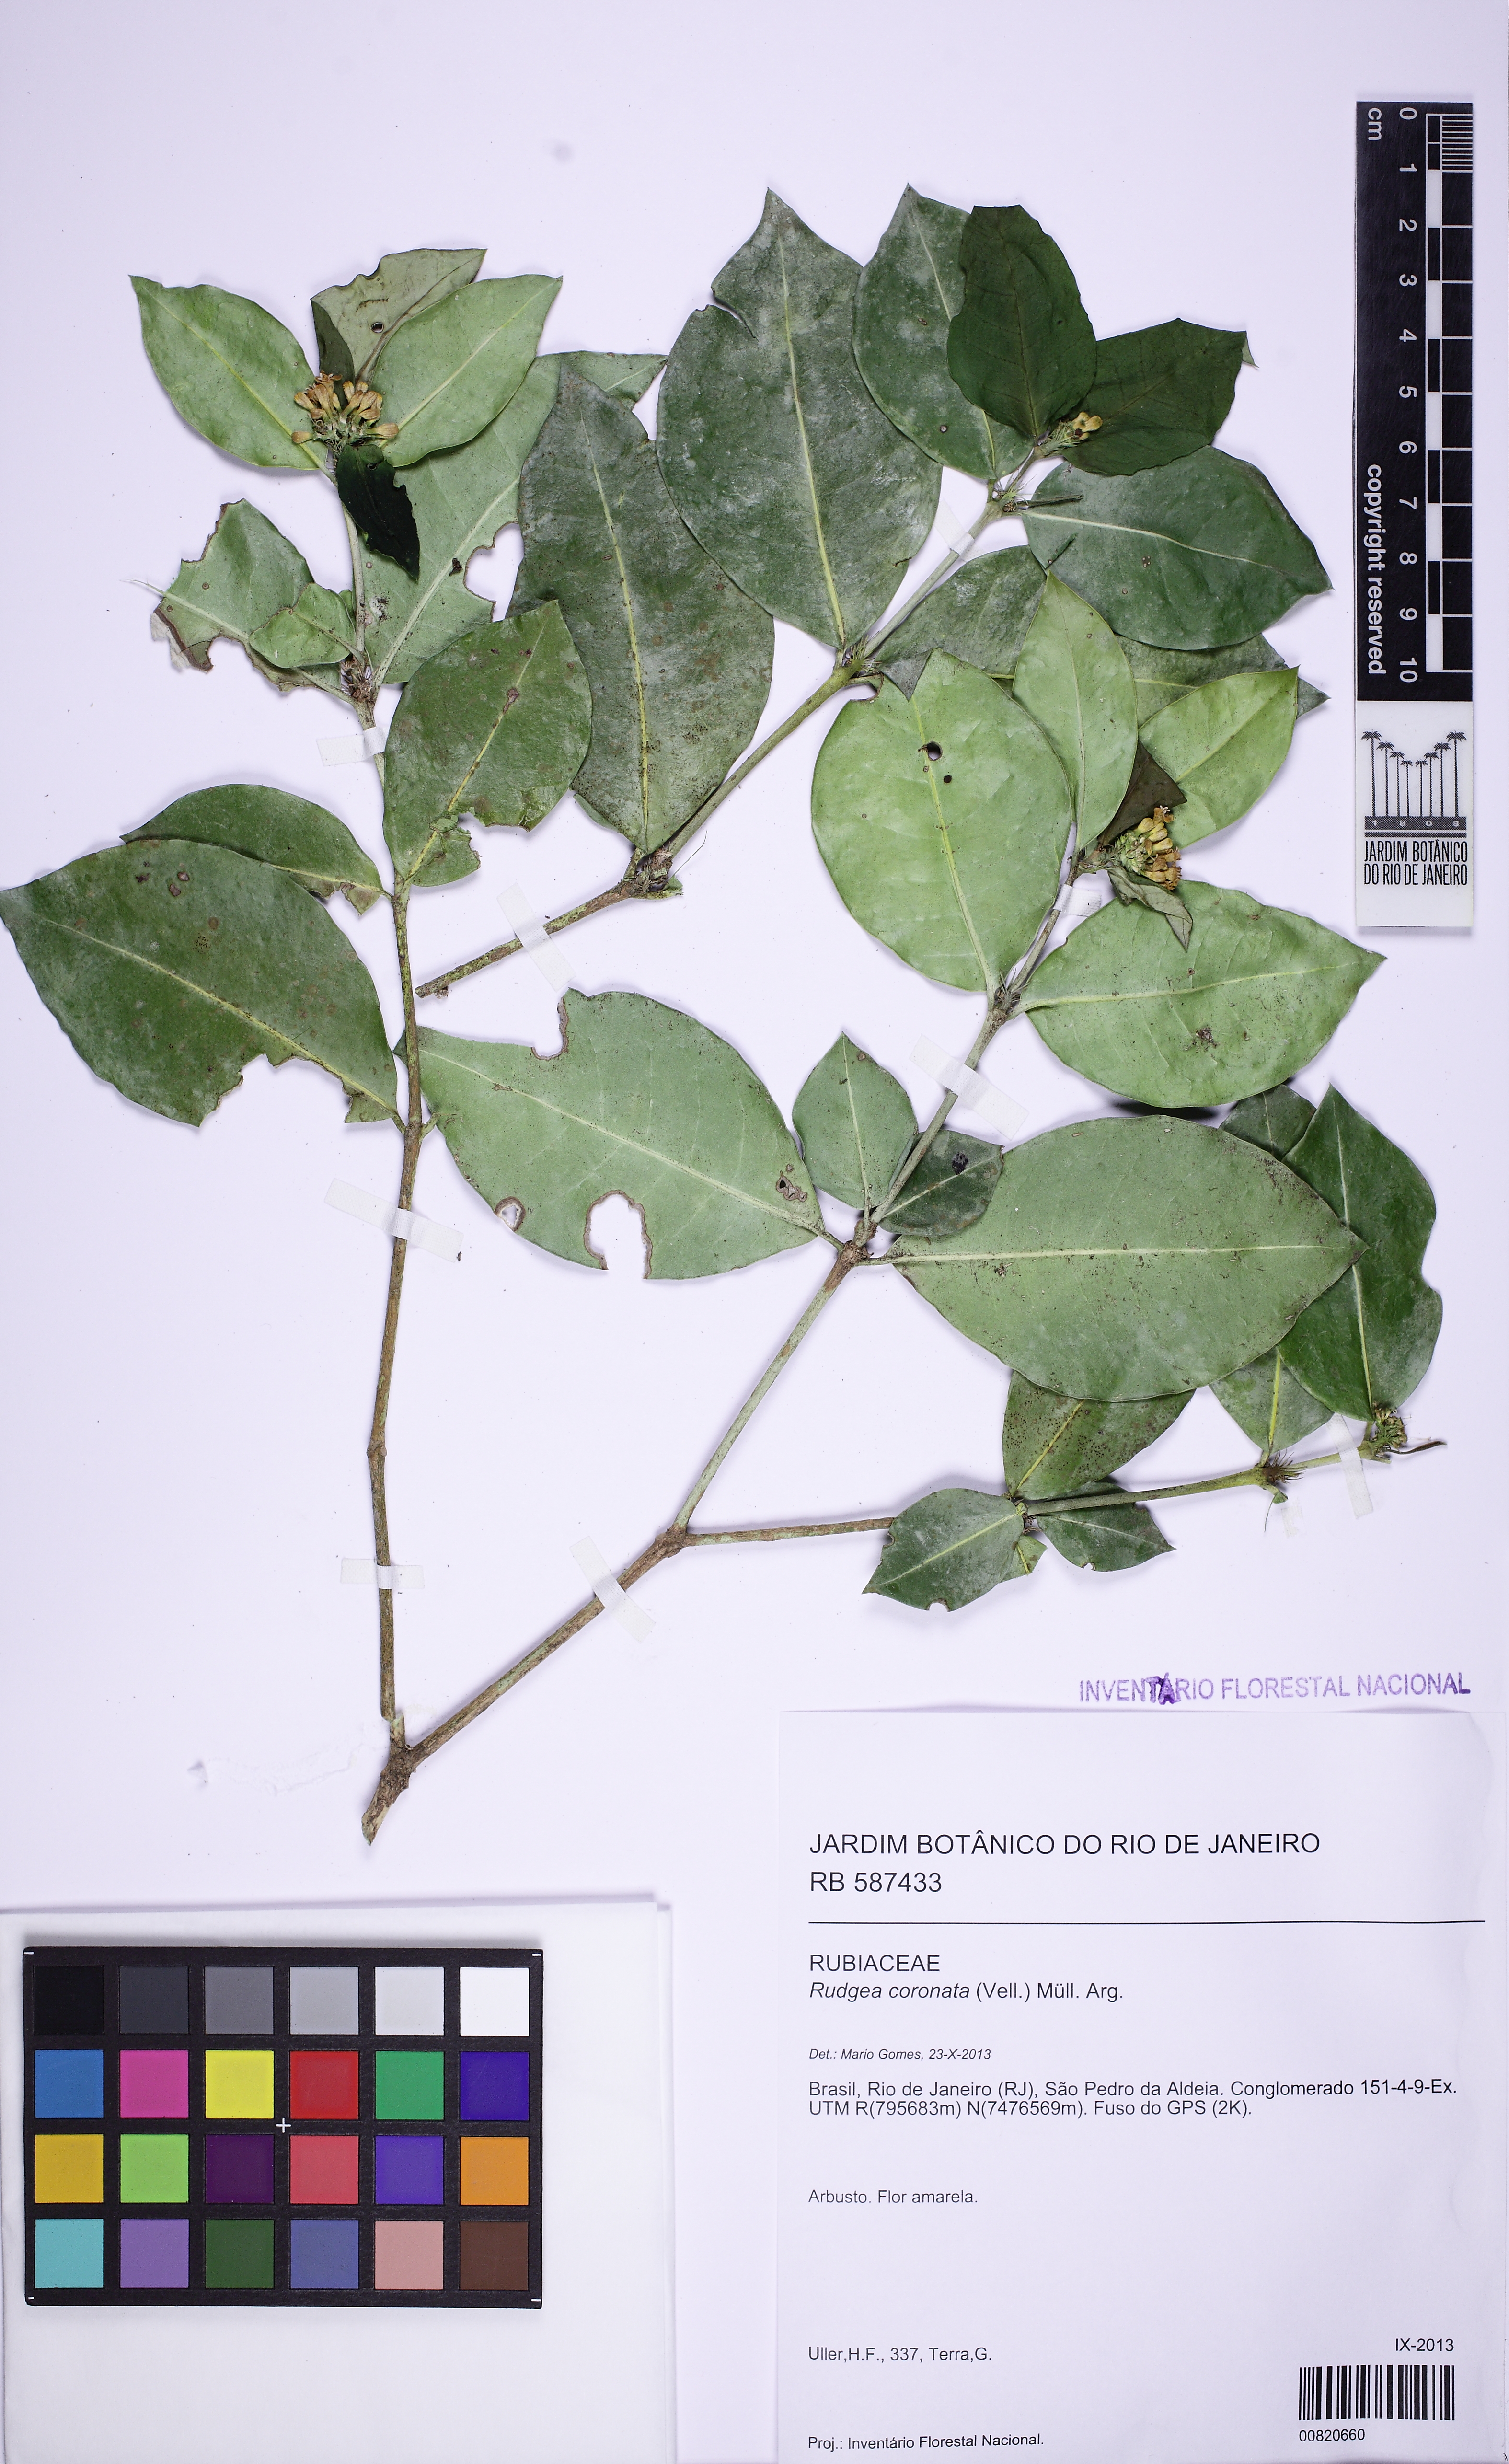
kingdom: Plantae
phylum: Tracheophyta
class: Magnoliopsida
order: Gentianales
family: Rubiaceae
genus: Rudgea
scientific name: Rudgea umbrosa
